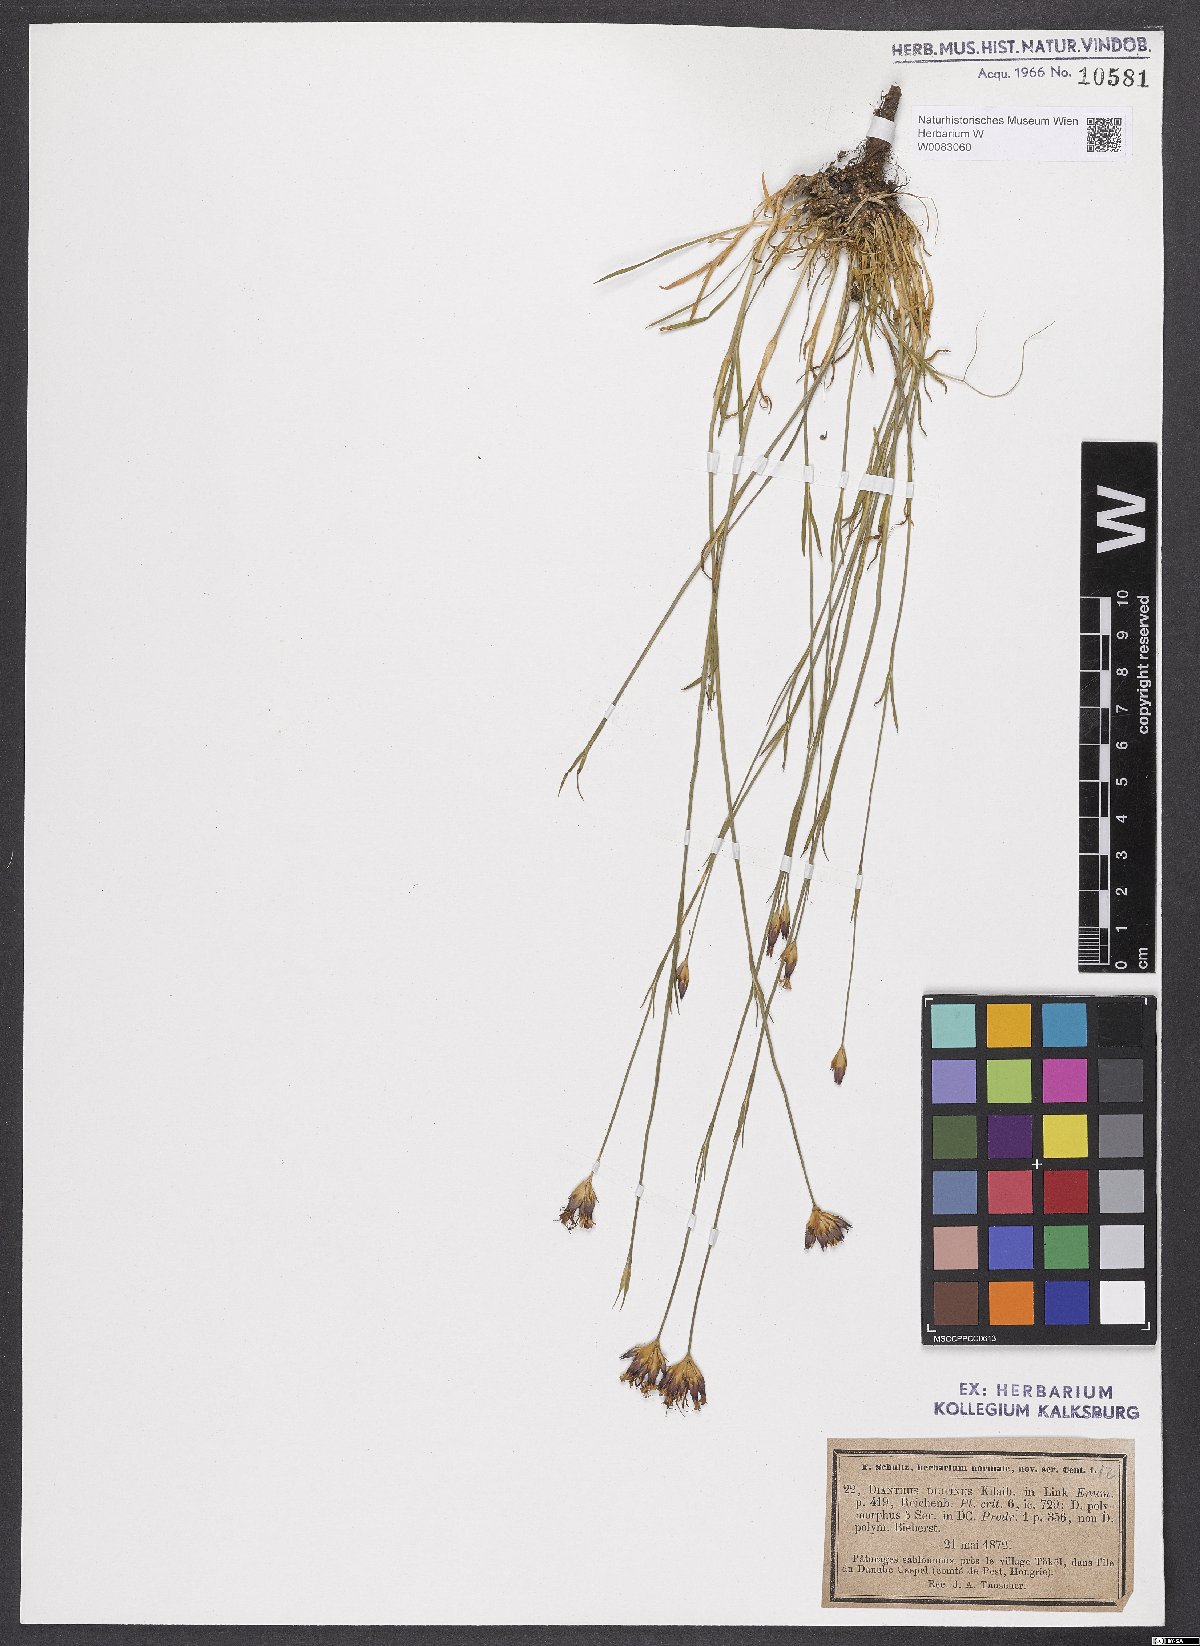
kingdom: Plantae
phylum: Tracheophyta
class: Magnoliopsida
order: Caryophyllales
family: Caryophyllaceae
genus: Dianthus
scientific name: Dianthus polymorphus
